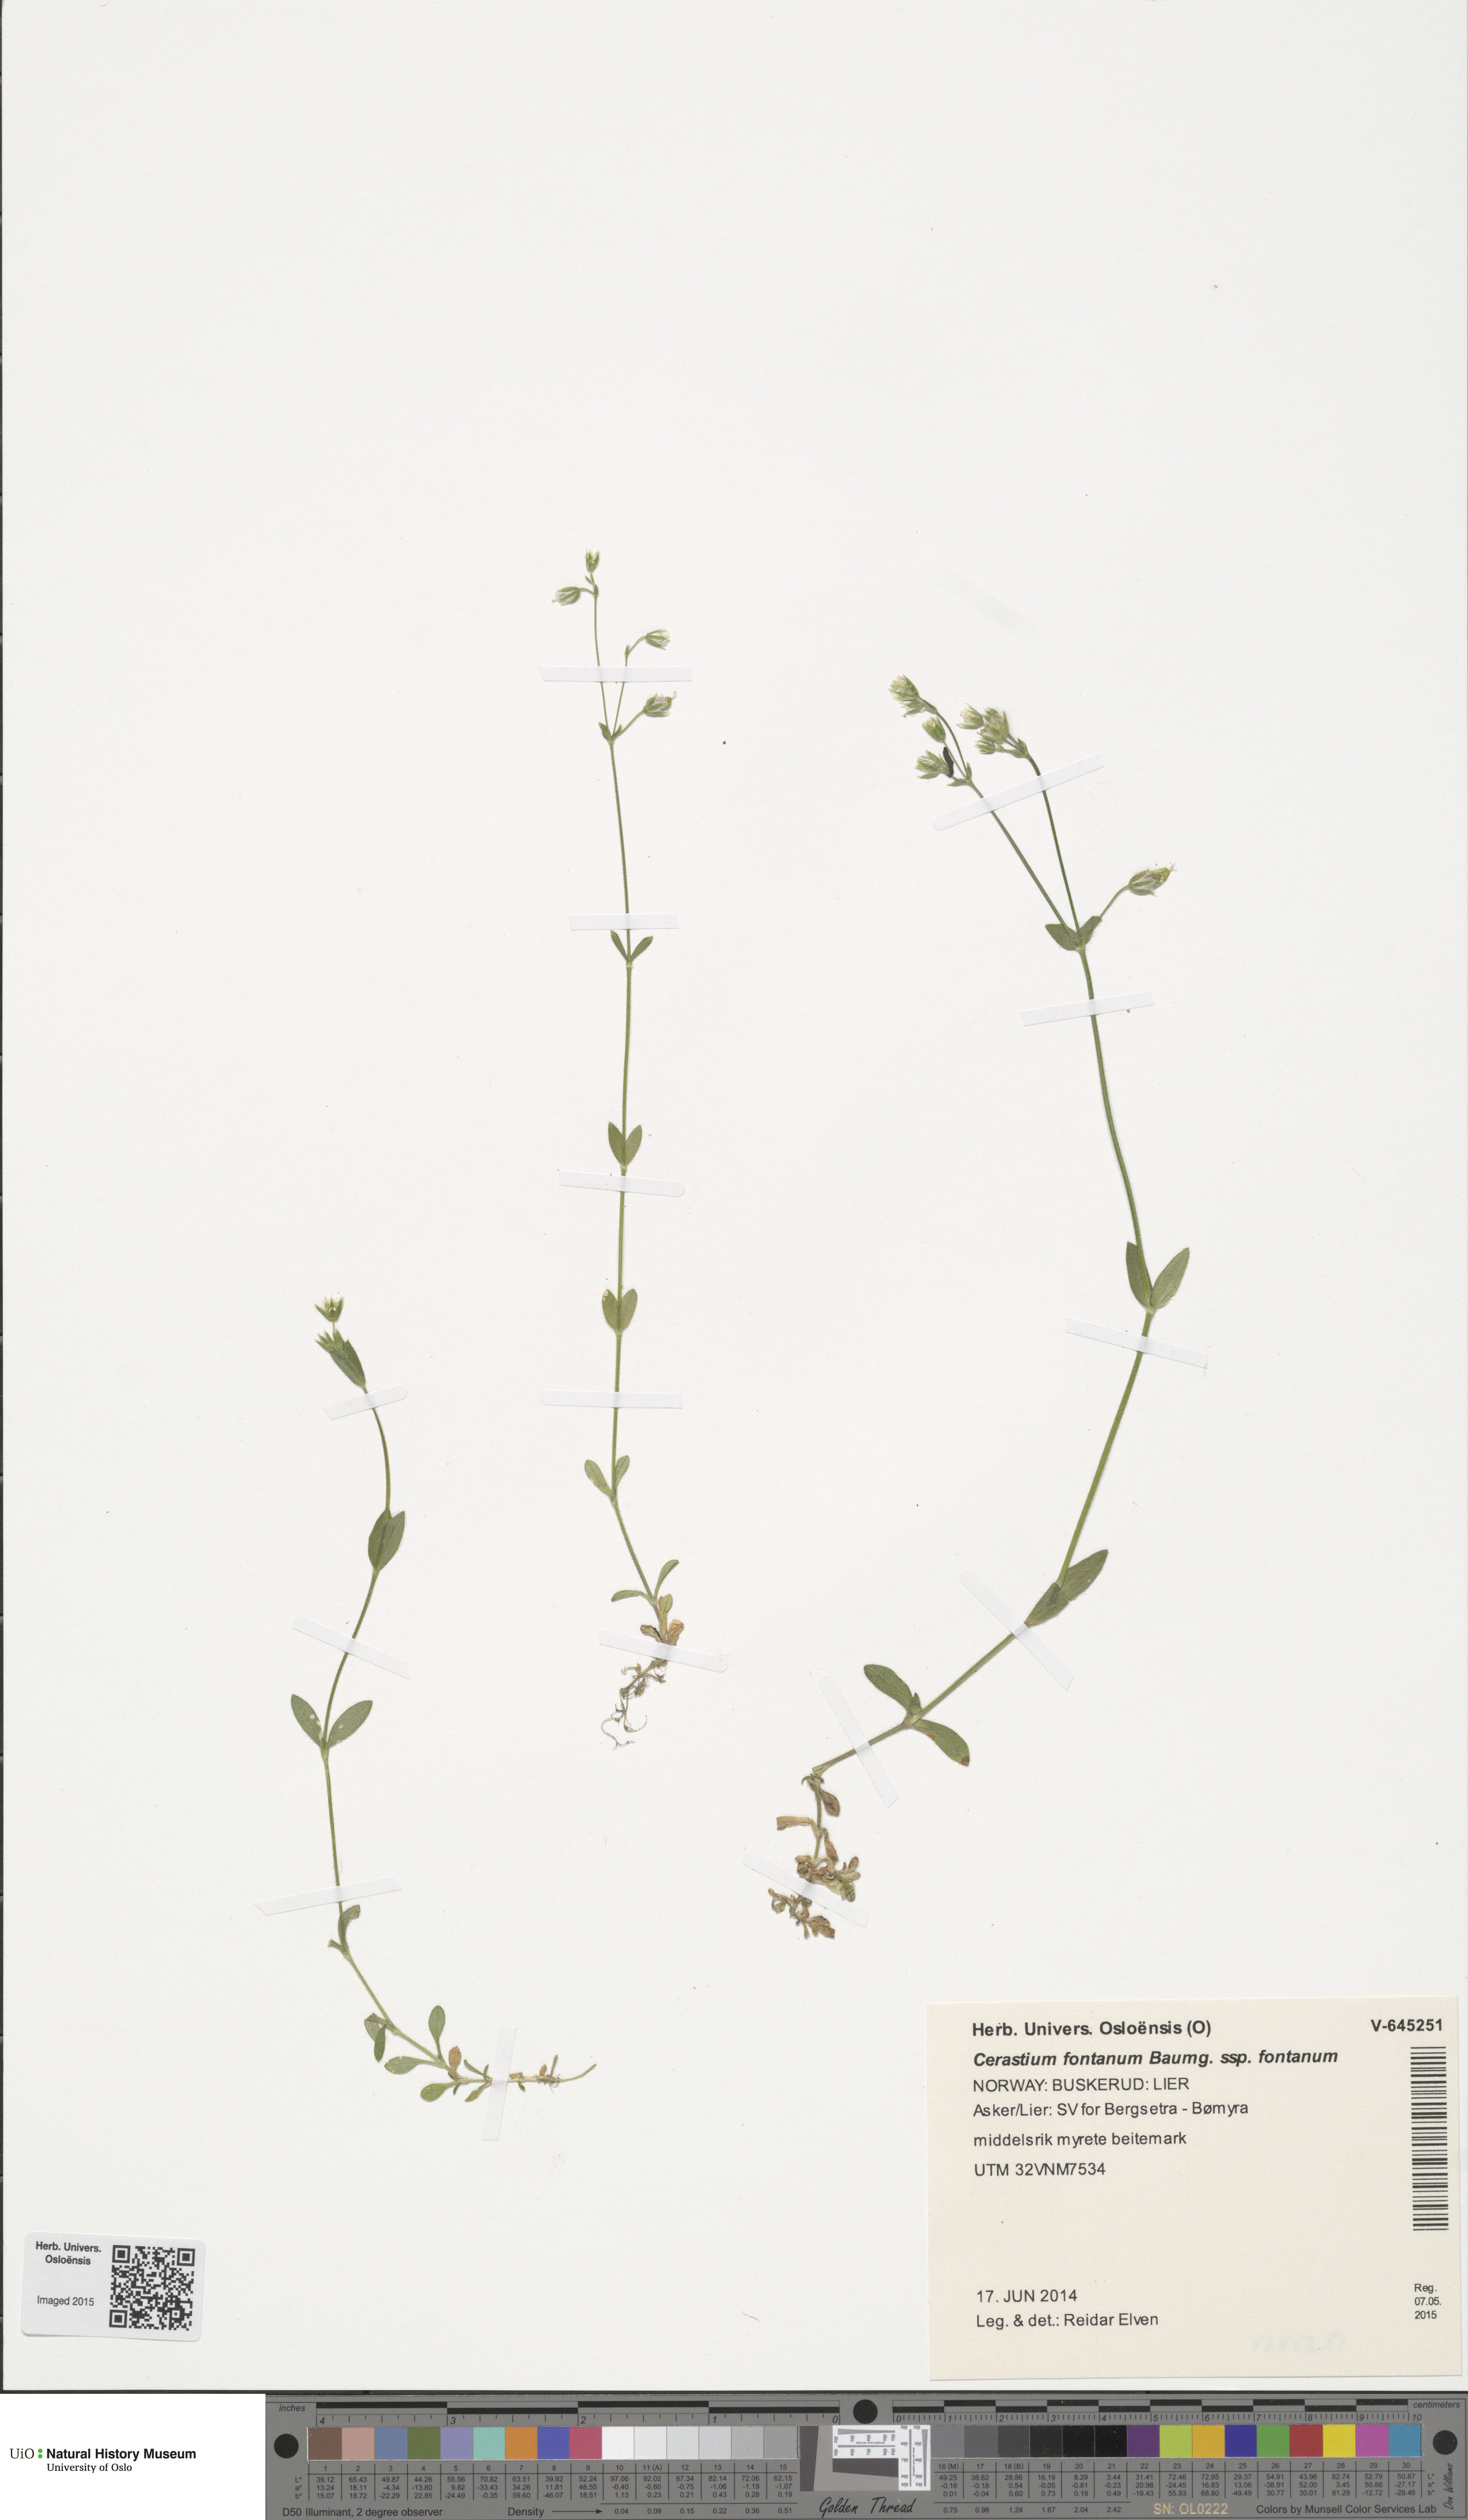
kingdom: Plantae
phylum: Tracheophyta
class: Magnoliopsida
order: Caryophyllales
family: Caryophyllaceae
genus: Cerastium
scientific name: Cerastium fontanum
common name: Common mouse-ear
